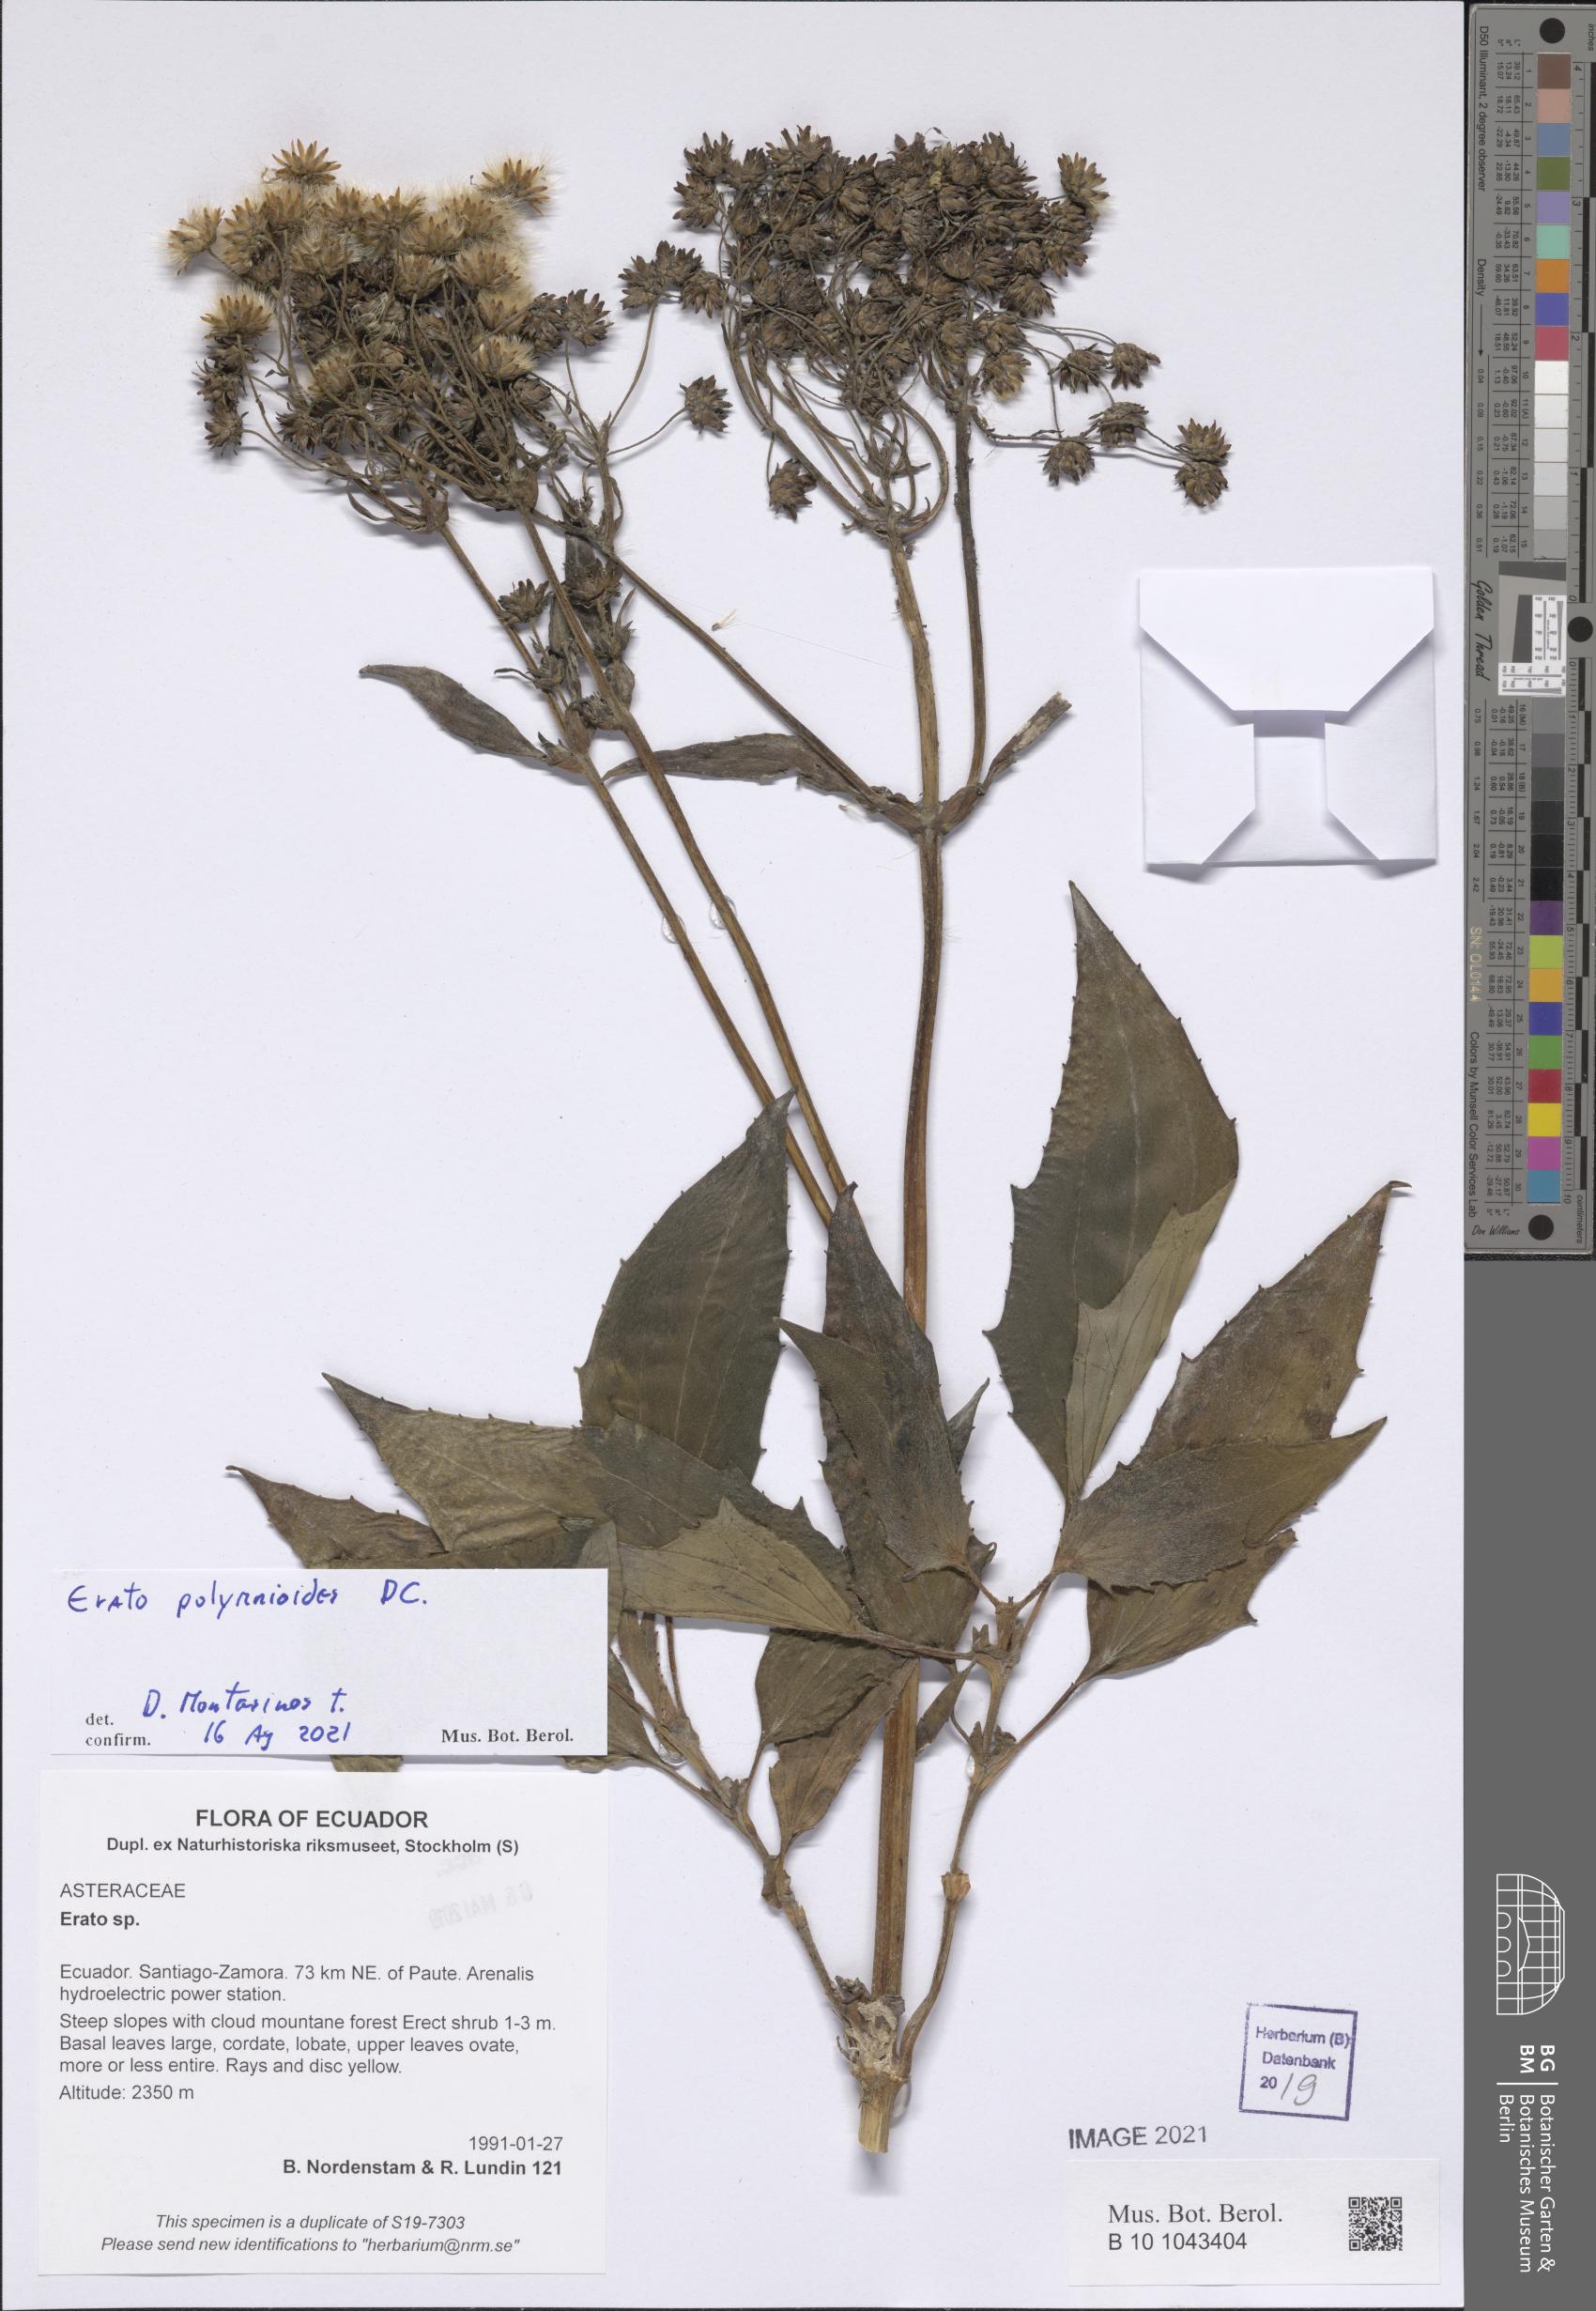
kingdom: Plantae
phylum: Tracheophyta
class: Magnoliopsida
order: Asterales
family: Asteraceae
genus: Erato
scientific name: Erato polymnioides
